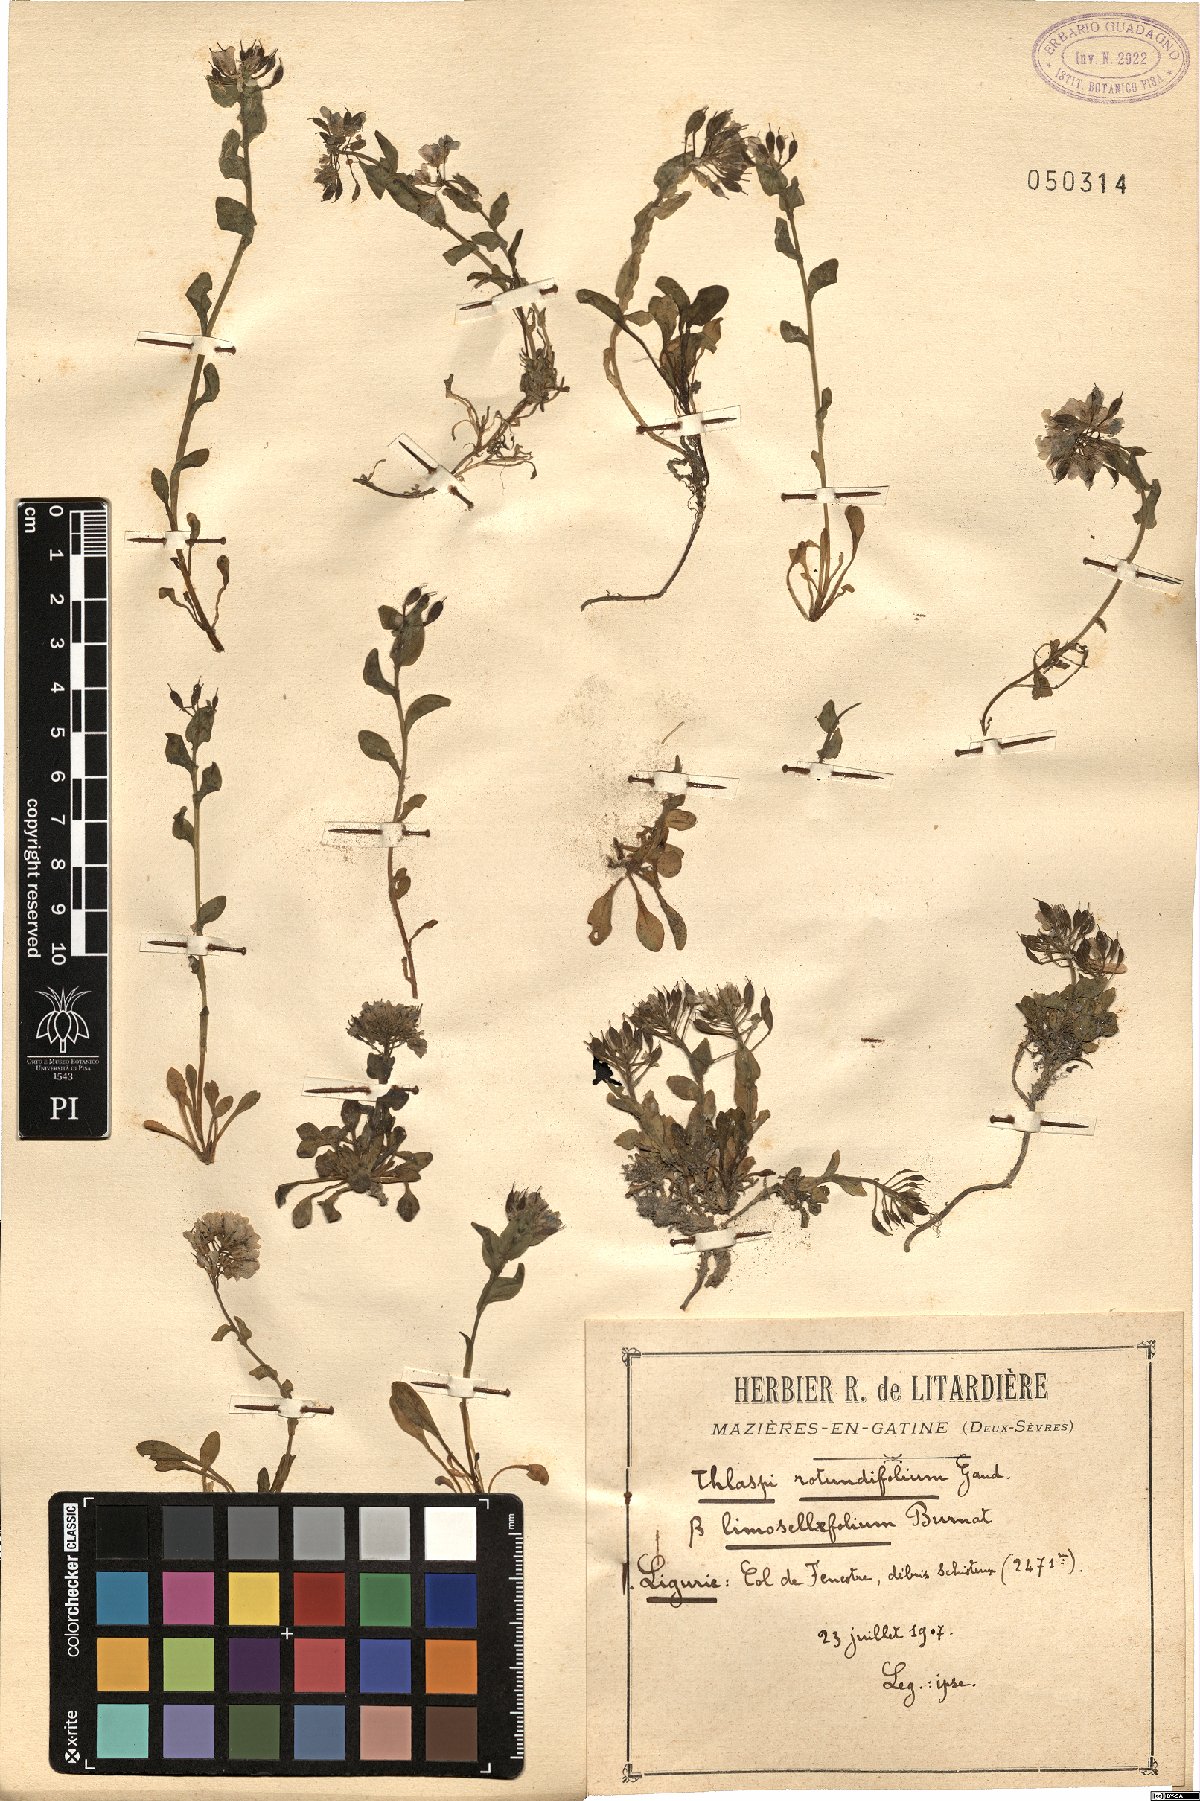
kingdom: Plantae
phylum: Tracheophyta
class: Magnoliopsida
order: Brassicales
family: Brassicaceae
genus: Noccaea
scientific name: Noccaea limosellifolia
